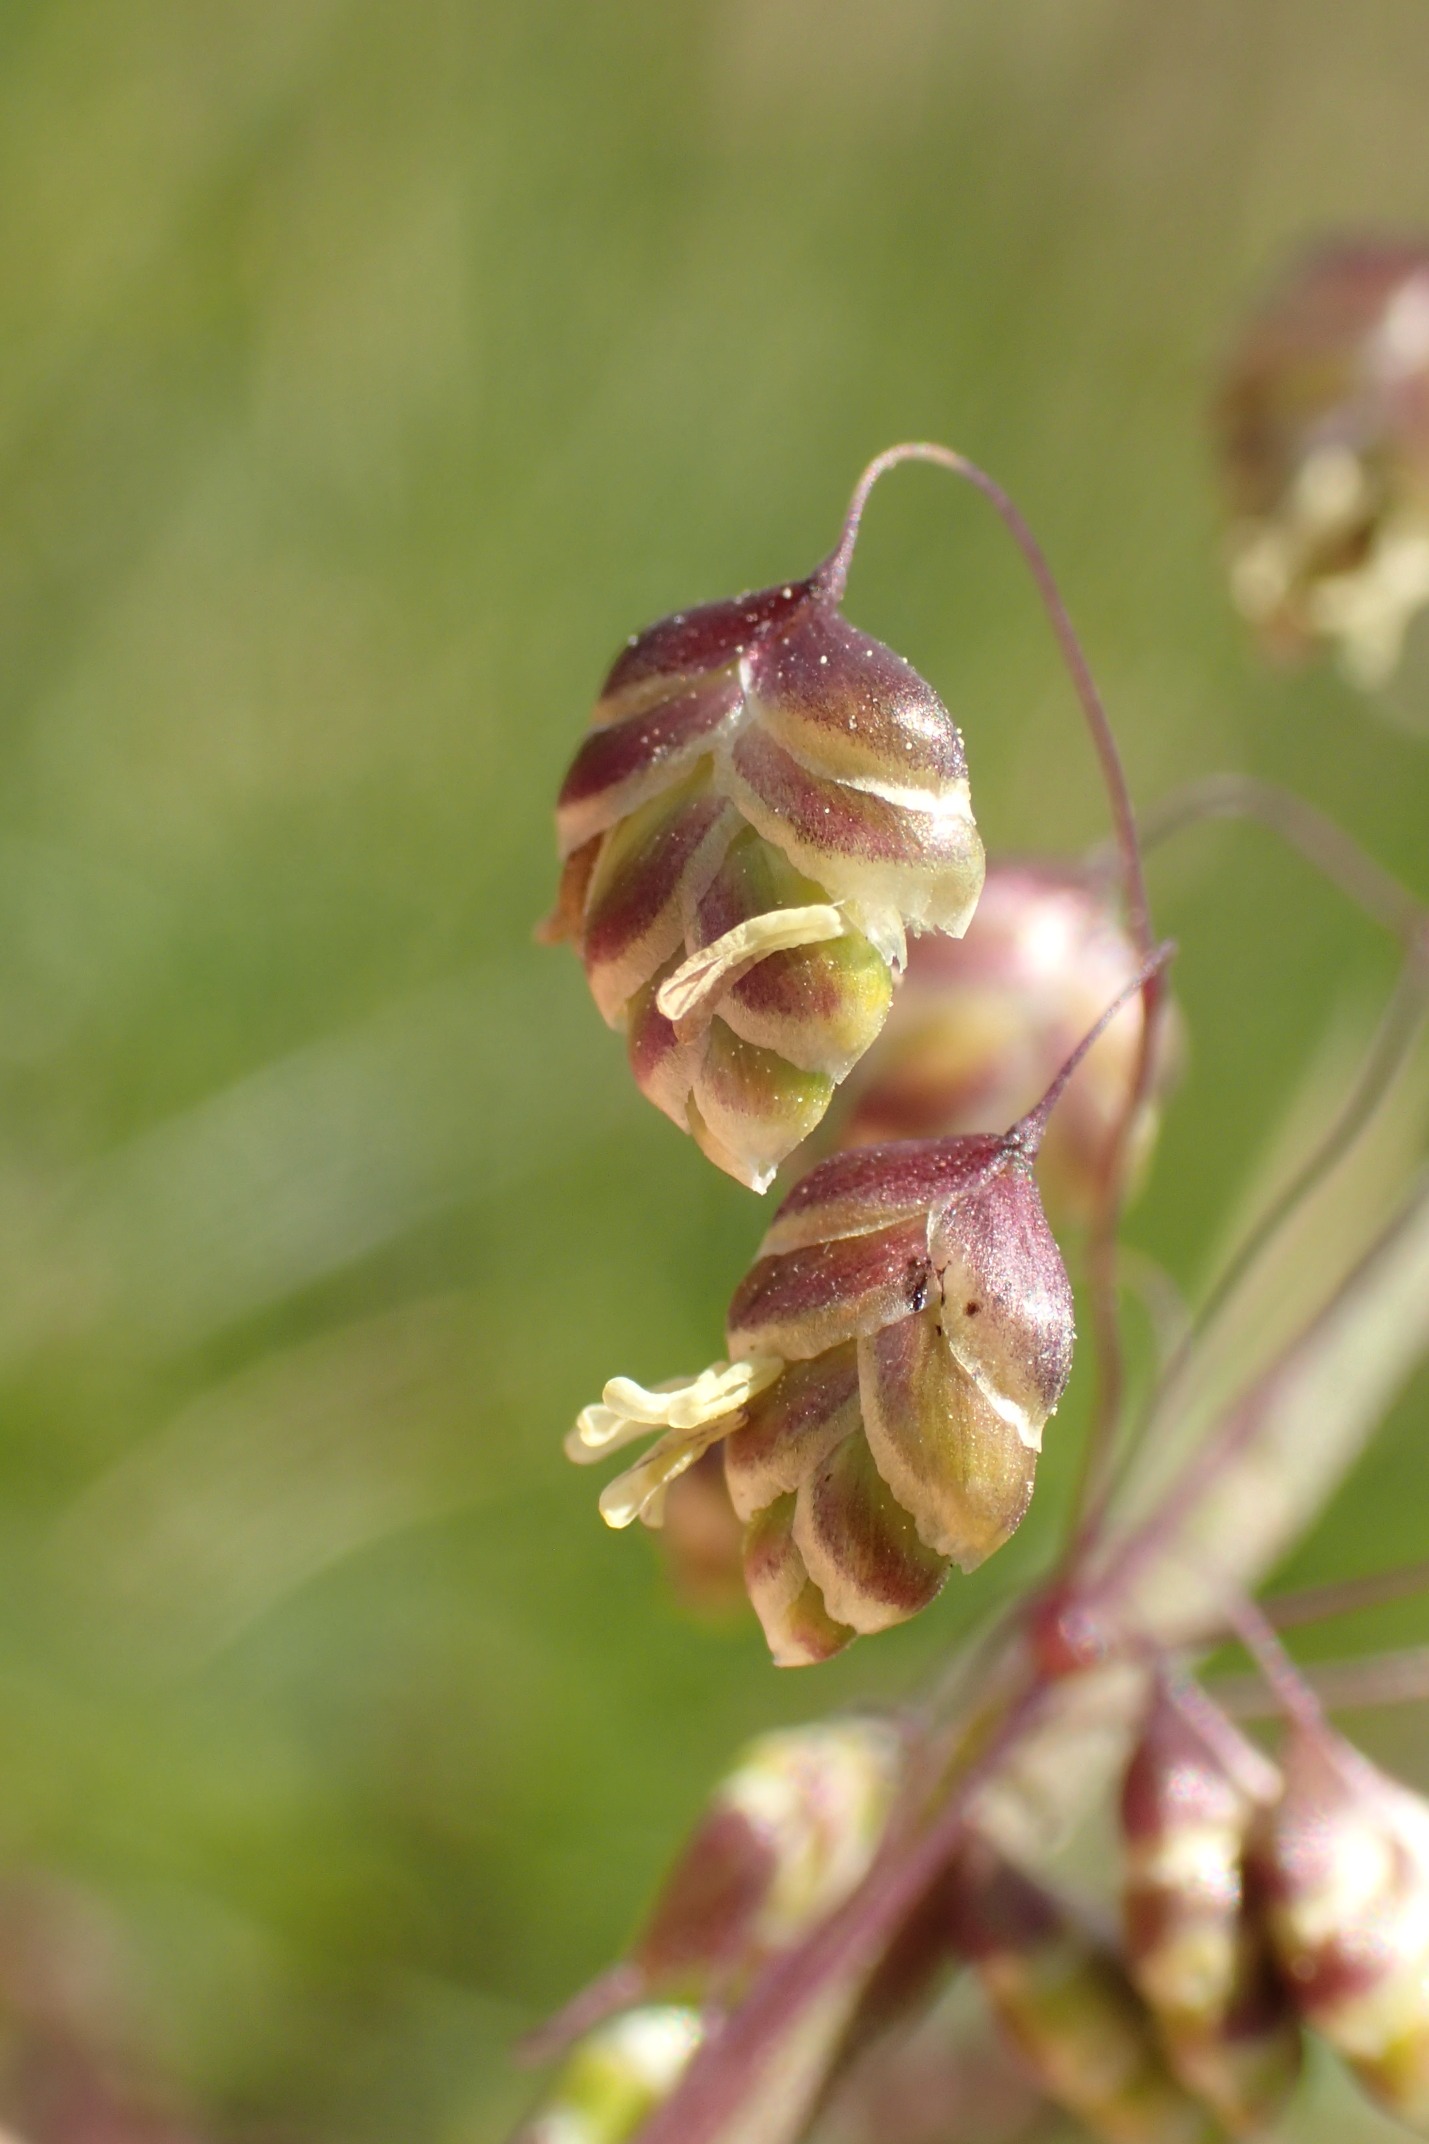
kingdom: Plantae
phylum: Tracheophyta
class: Liliopsida
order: Poales
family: Poaceae
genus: Briza
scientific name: Briza media
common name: Hjertegræs
